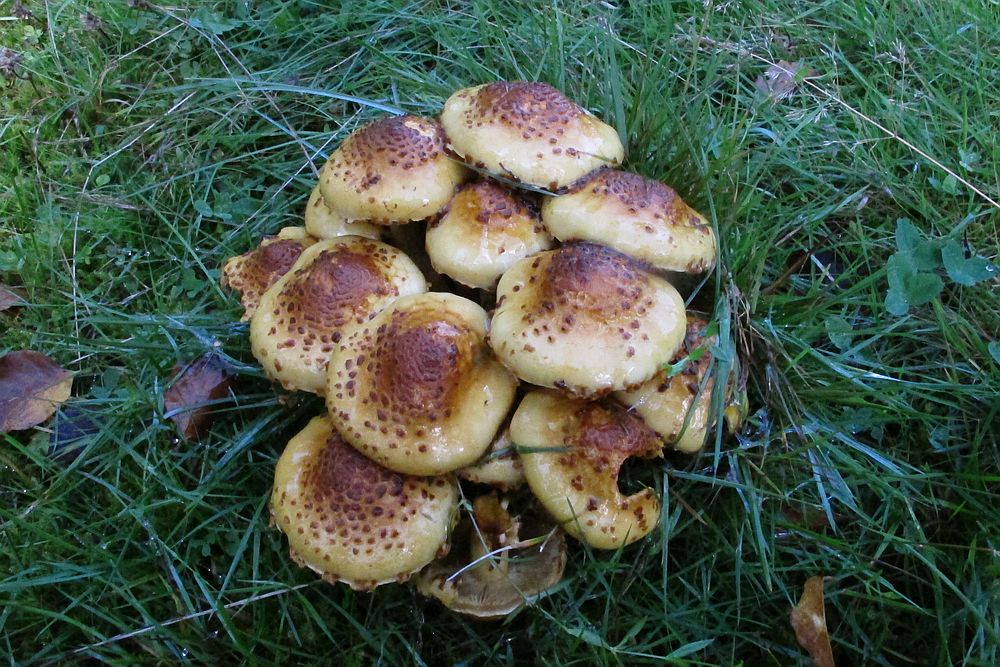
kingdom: Fungi
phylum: Basidiomycota
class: Agaricomycetes
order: Agaricales
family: Strophariaceae
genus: Pholiota
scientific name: Pholiota jahnii
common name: slimet skælhat
